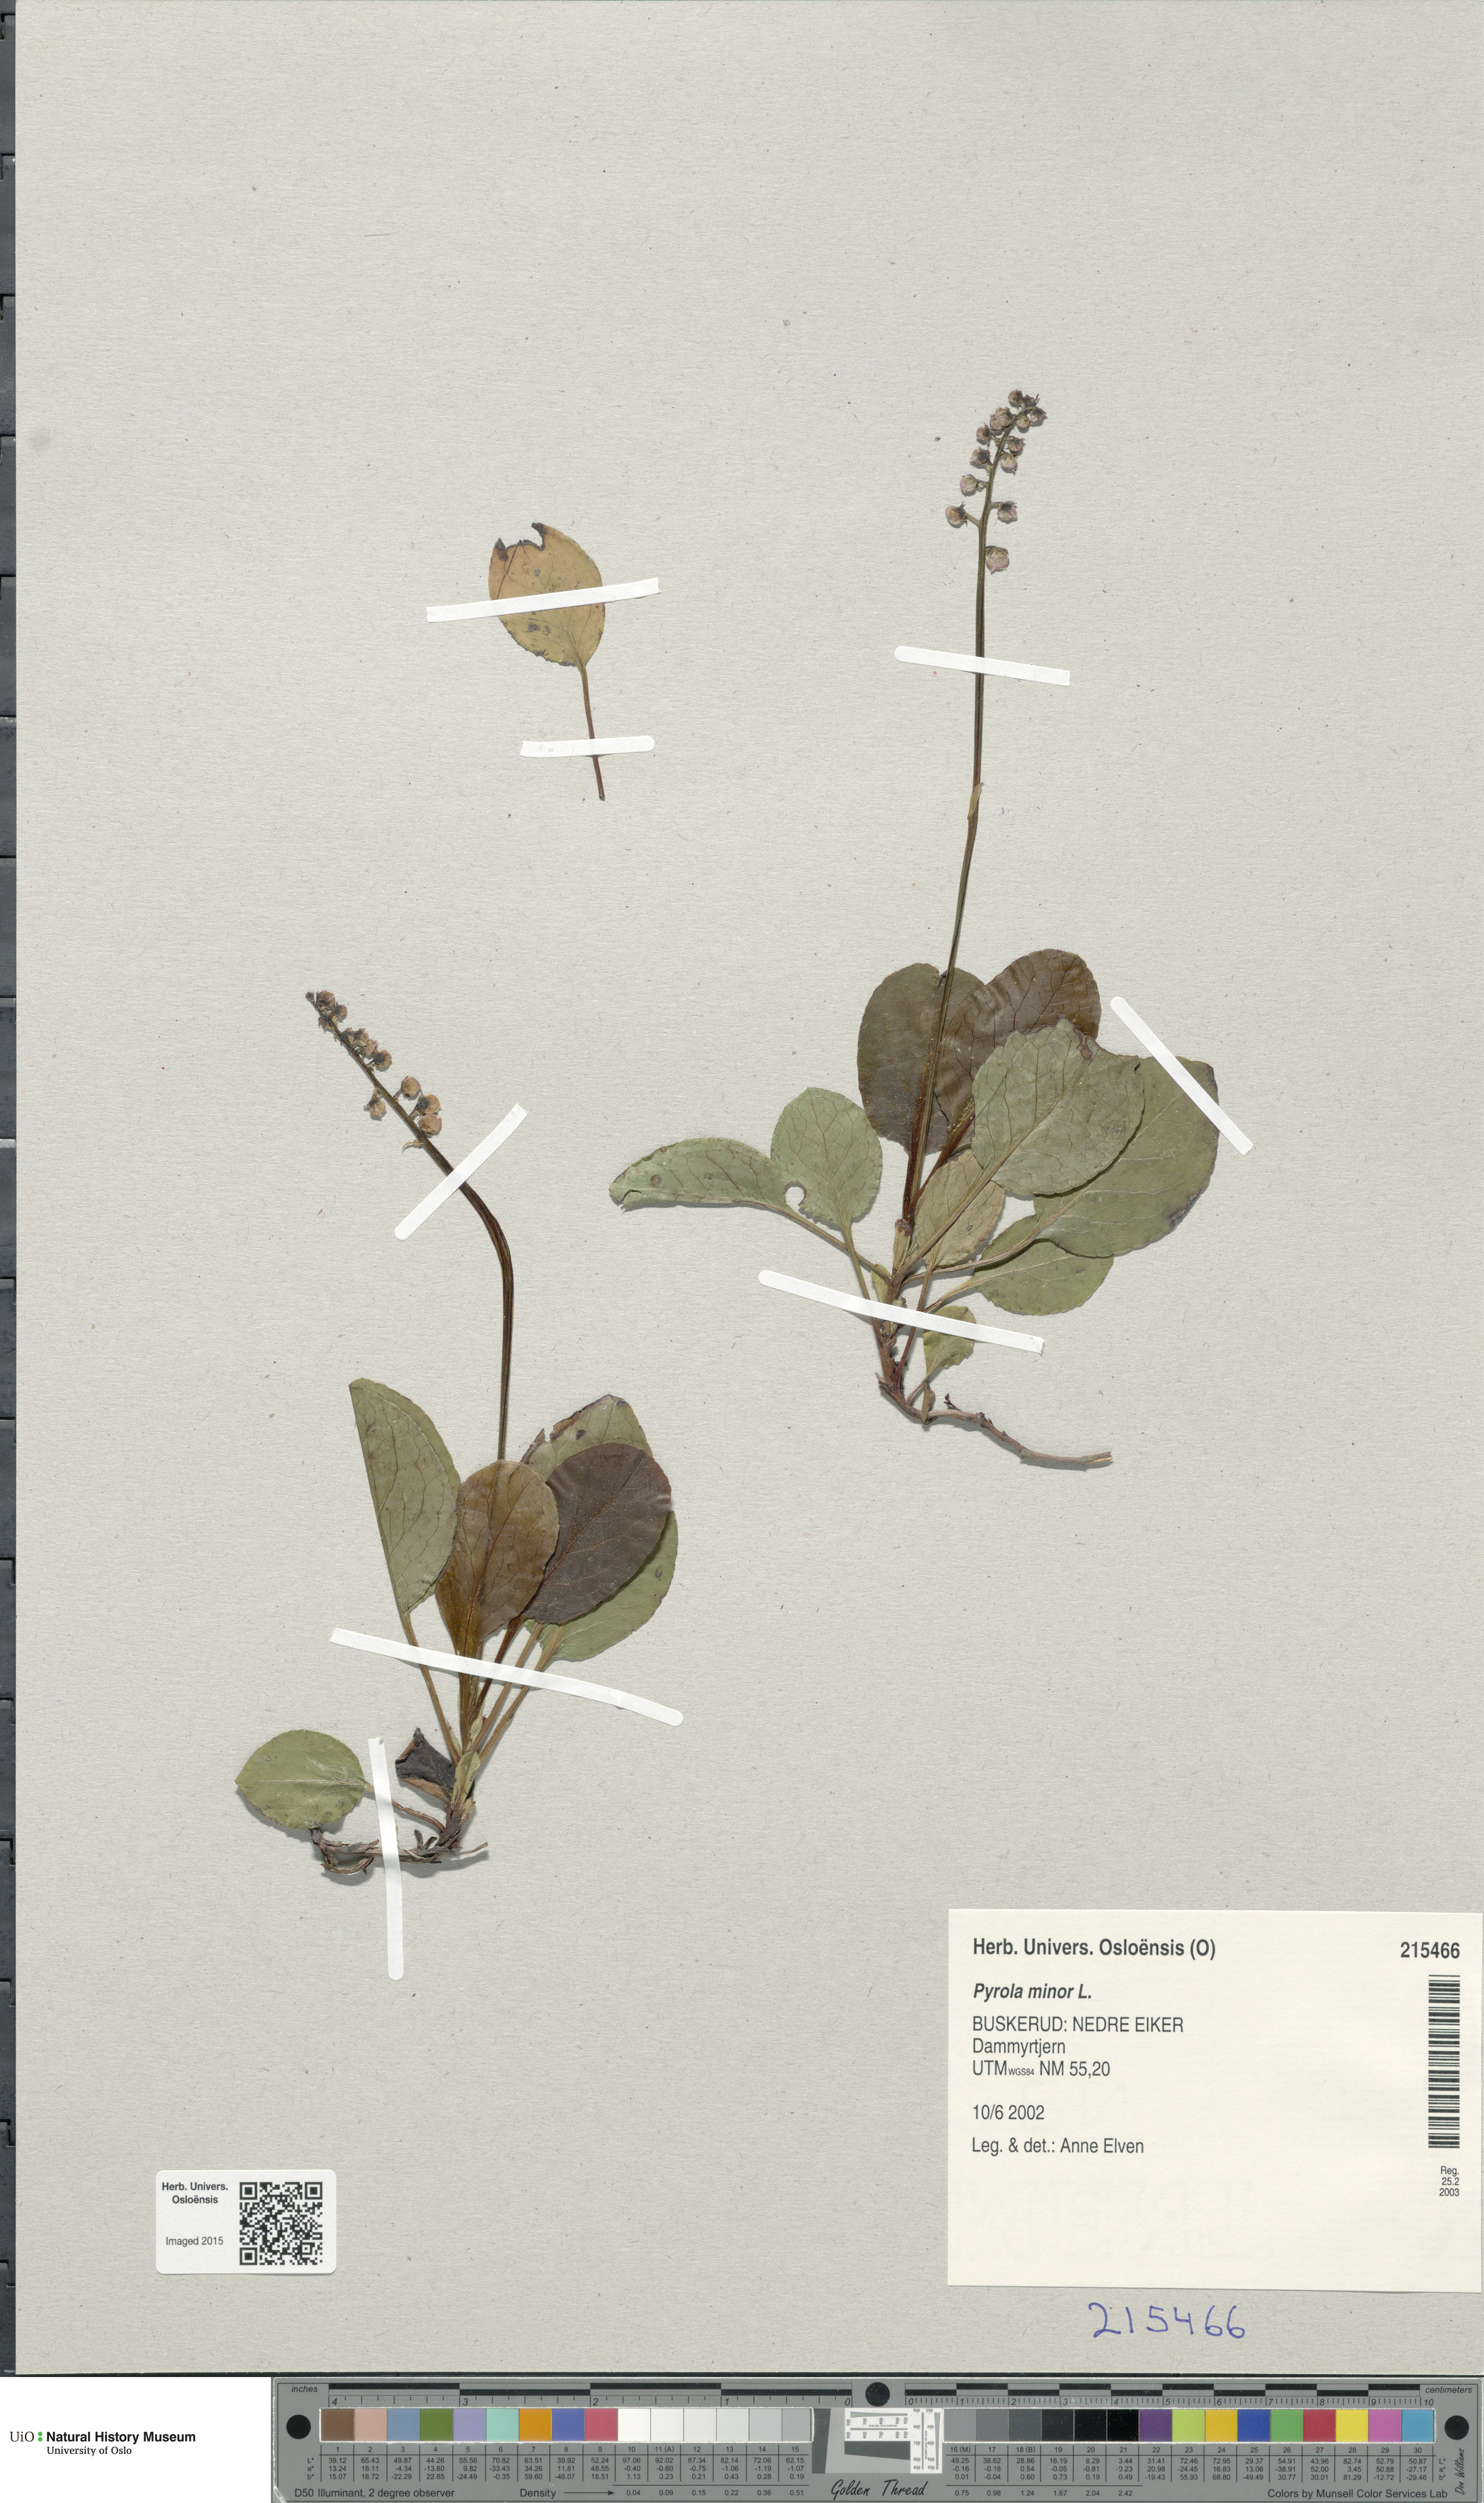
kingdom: Plantae
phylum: Tracheophyta
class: Magnoliopsida
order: Ericales
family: Ericaceae
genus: Pyrola
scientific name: Pyrola minor
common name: Common wintergreen
